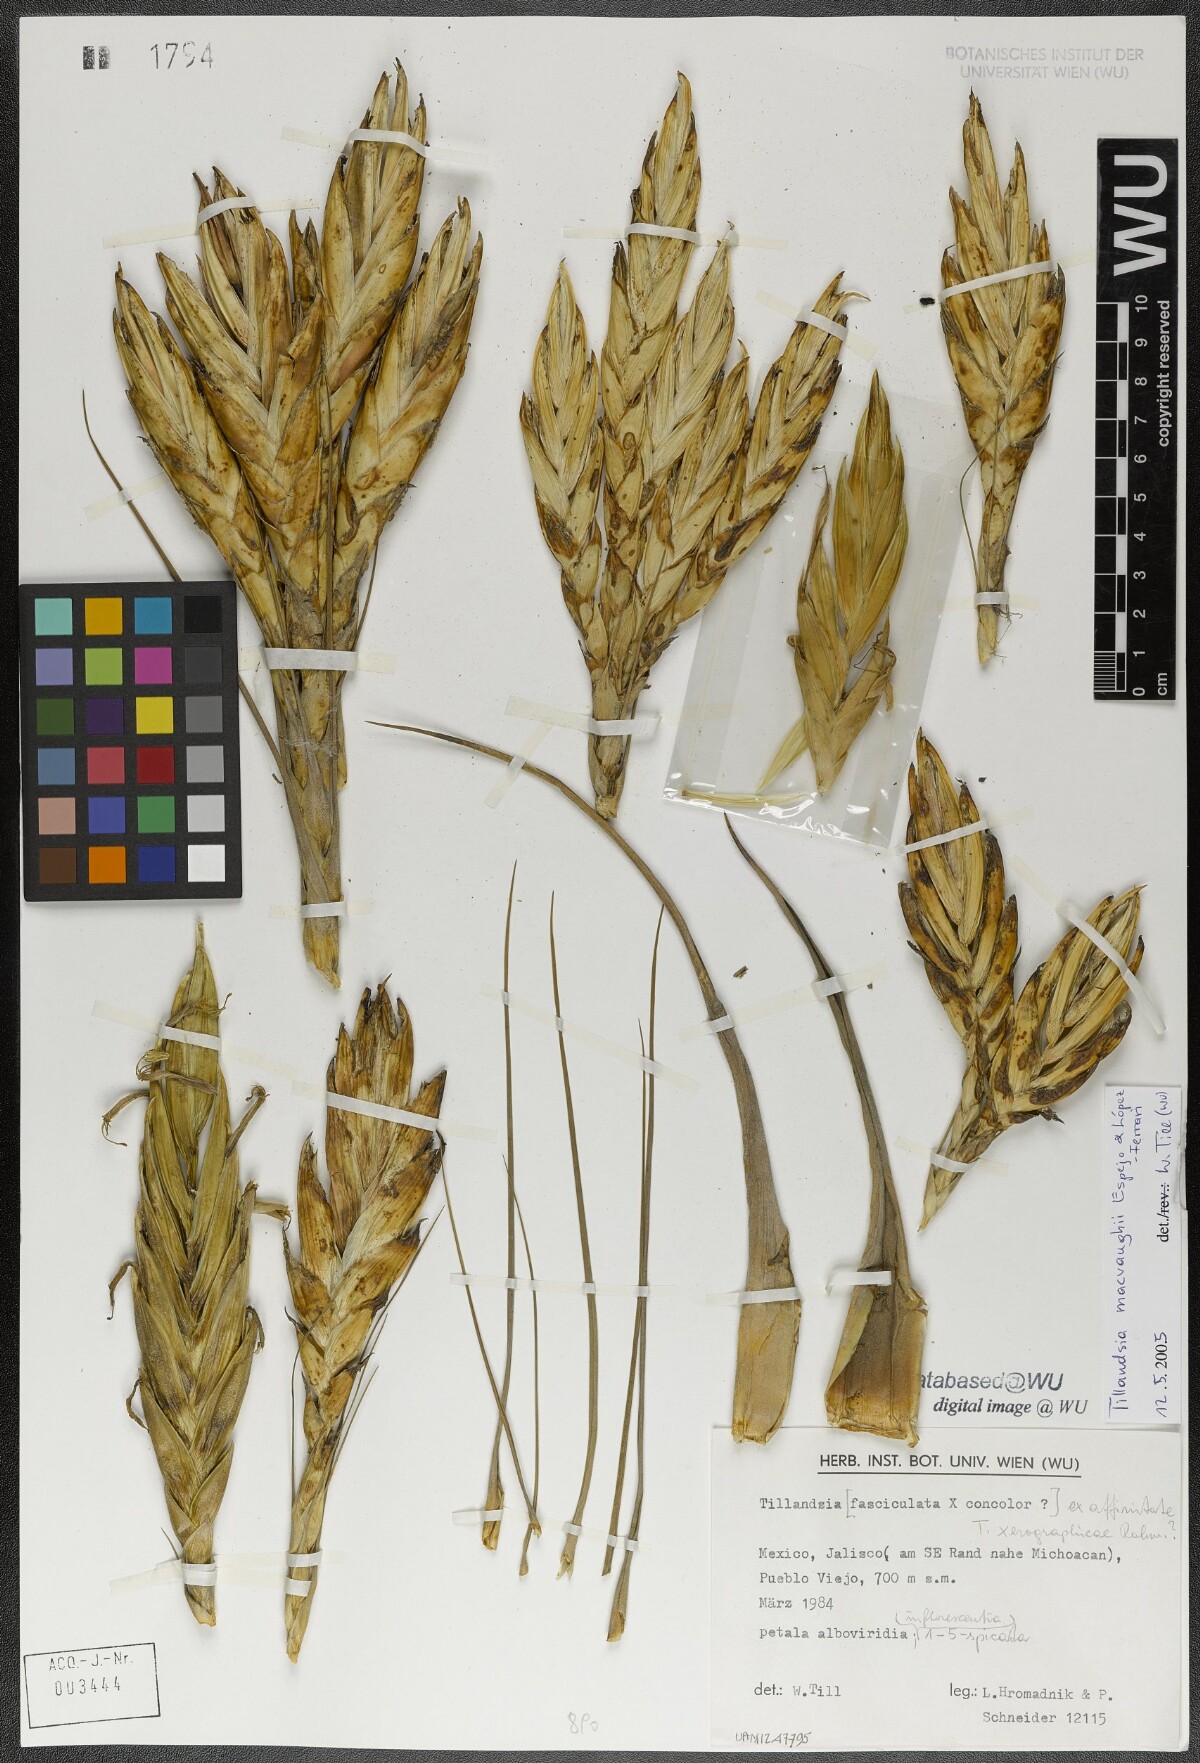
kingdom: Plantae
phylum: Tracheophyta
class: Liliopsida
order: Poales
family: Bromeliaceae
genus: Tillandsia
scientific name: Tillandsia macvaughii
